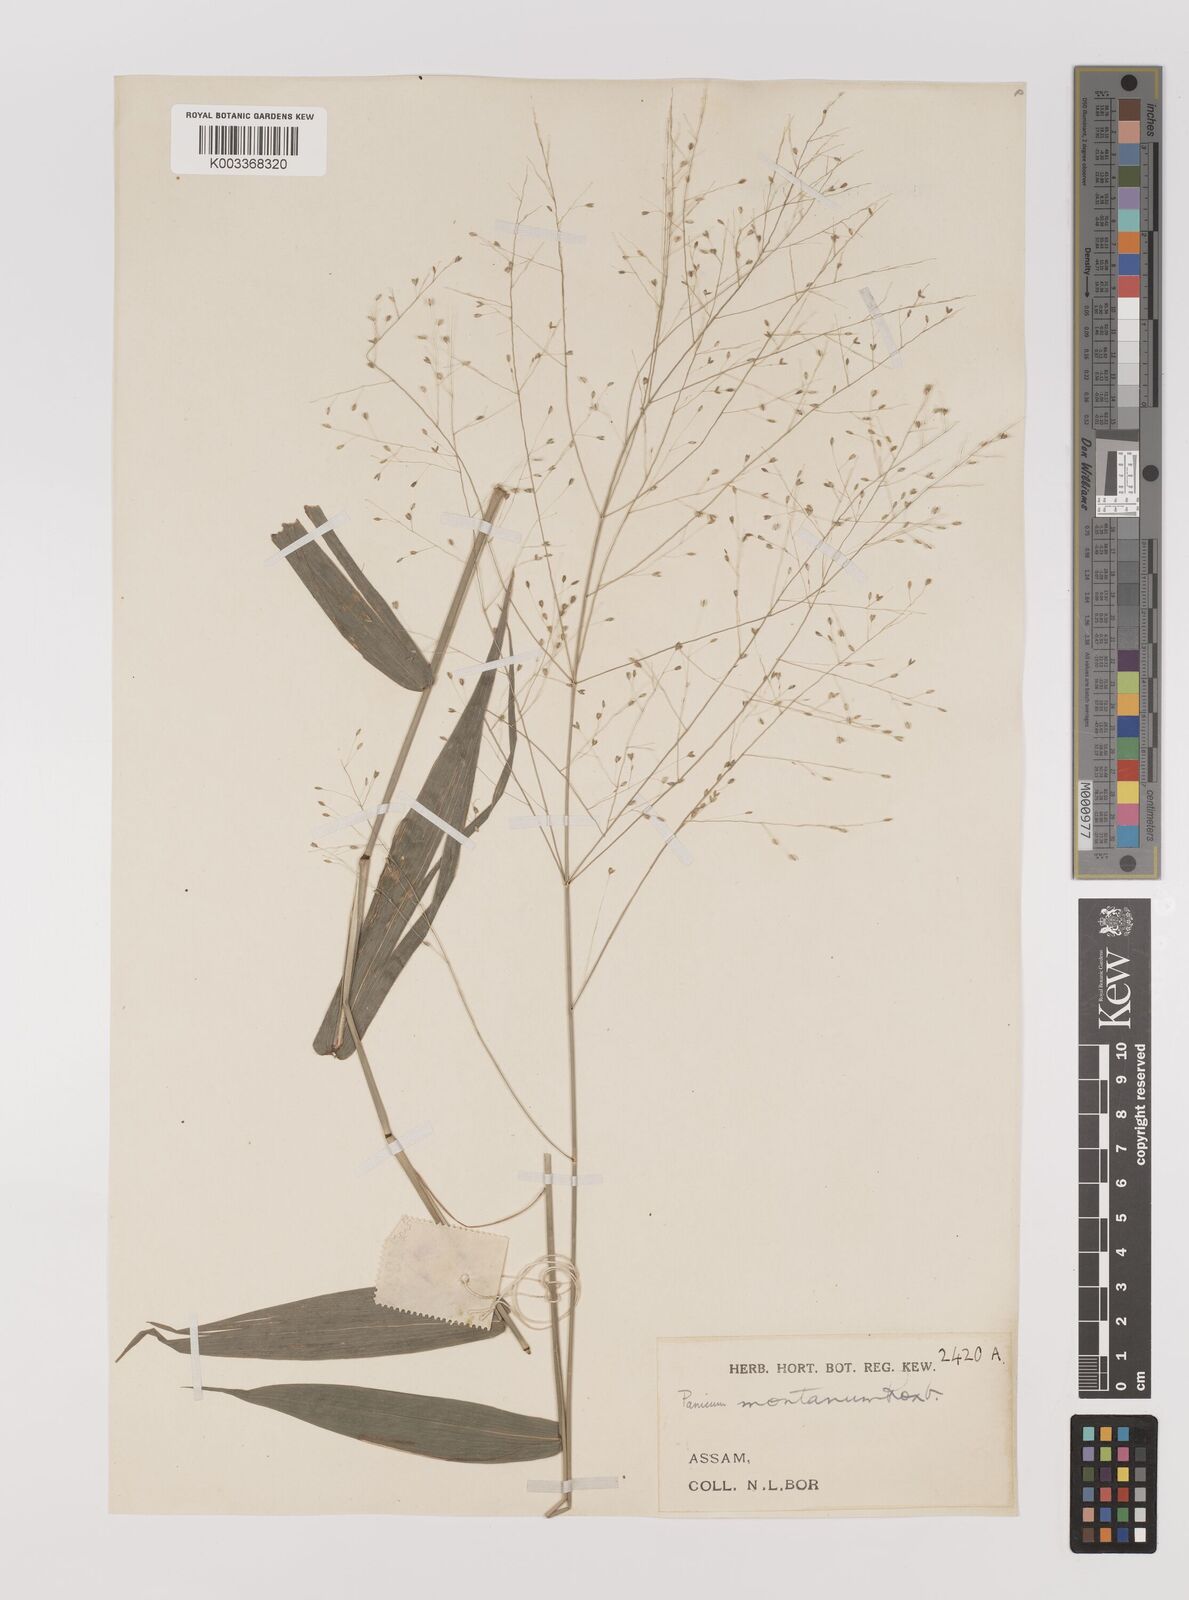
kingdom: Plantae
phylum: Tracheophyta
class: Liliopsida
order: Poales
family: Poaceae
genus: Panicum
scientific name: Panicum notatum
